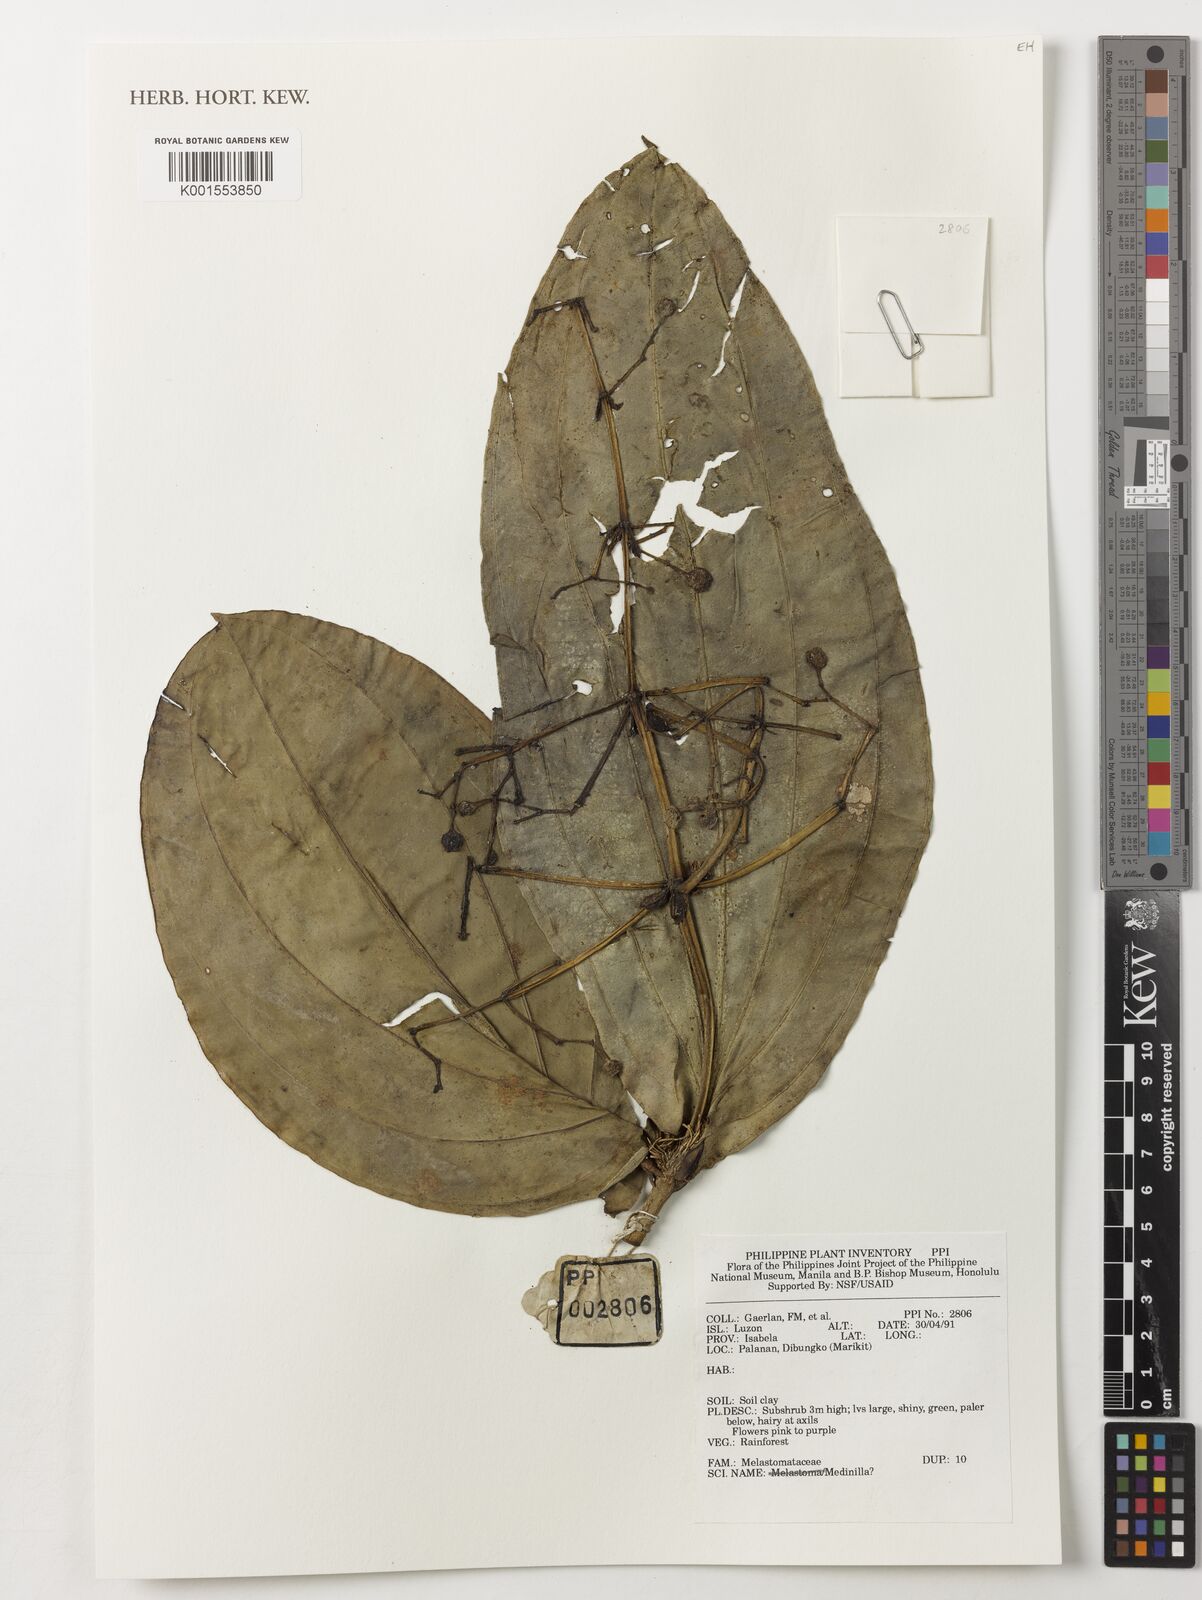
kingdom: Plantae
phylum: Tracheophyta
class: Magnoliopsida
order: Myrtales
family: Melastomataceae
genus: Medinilla
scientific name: Medinilla
